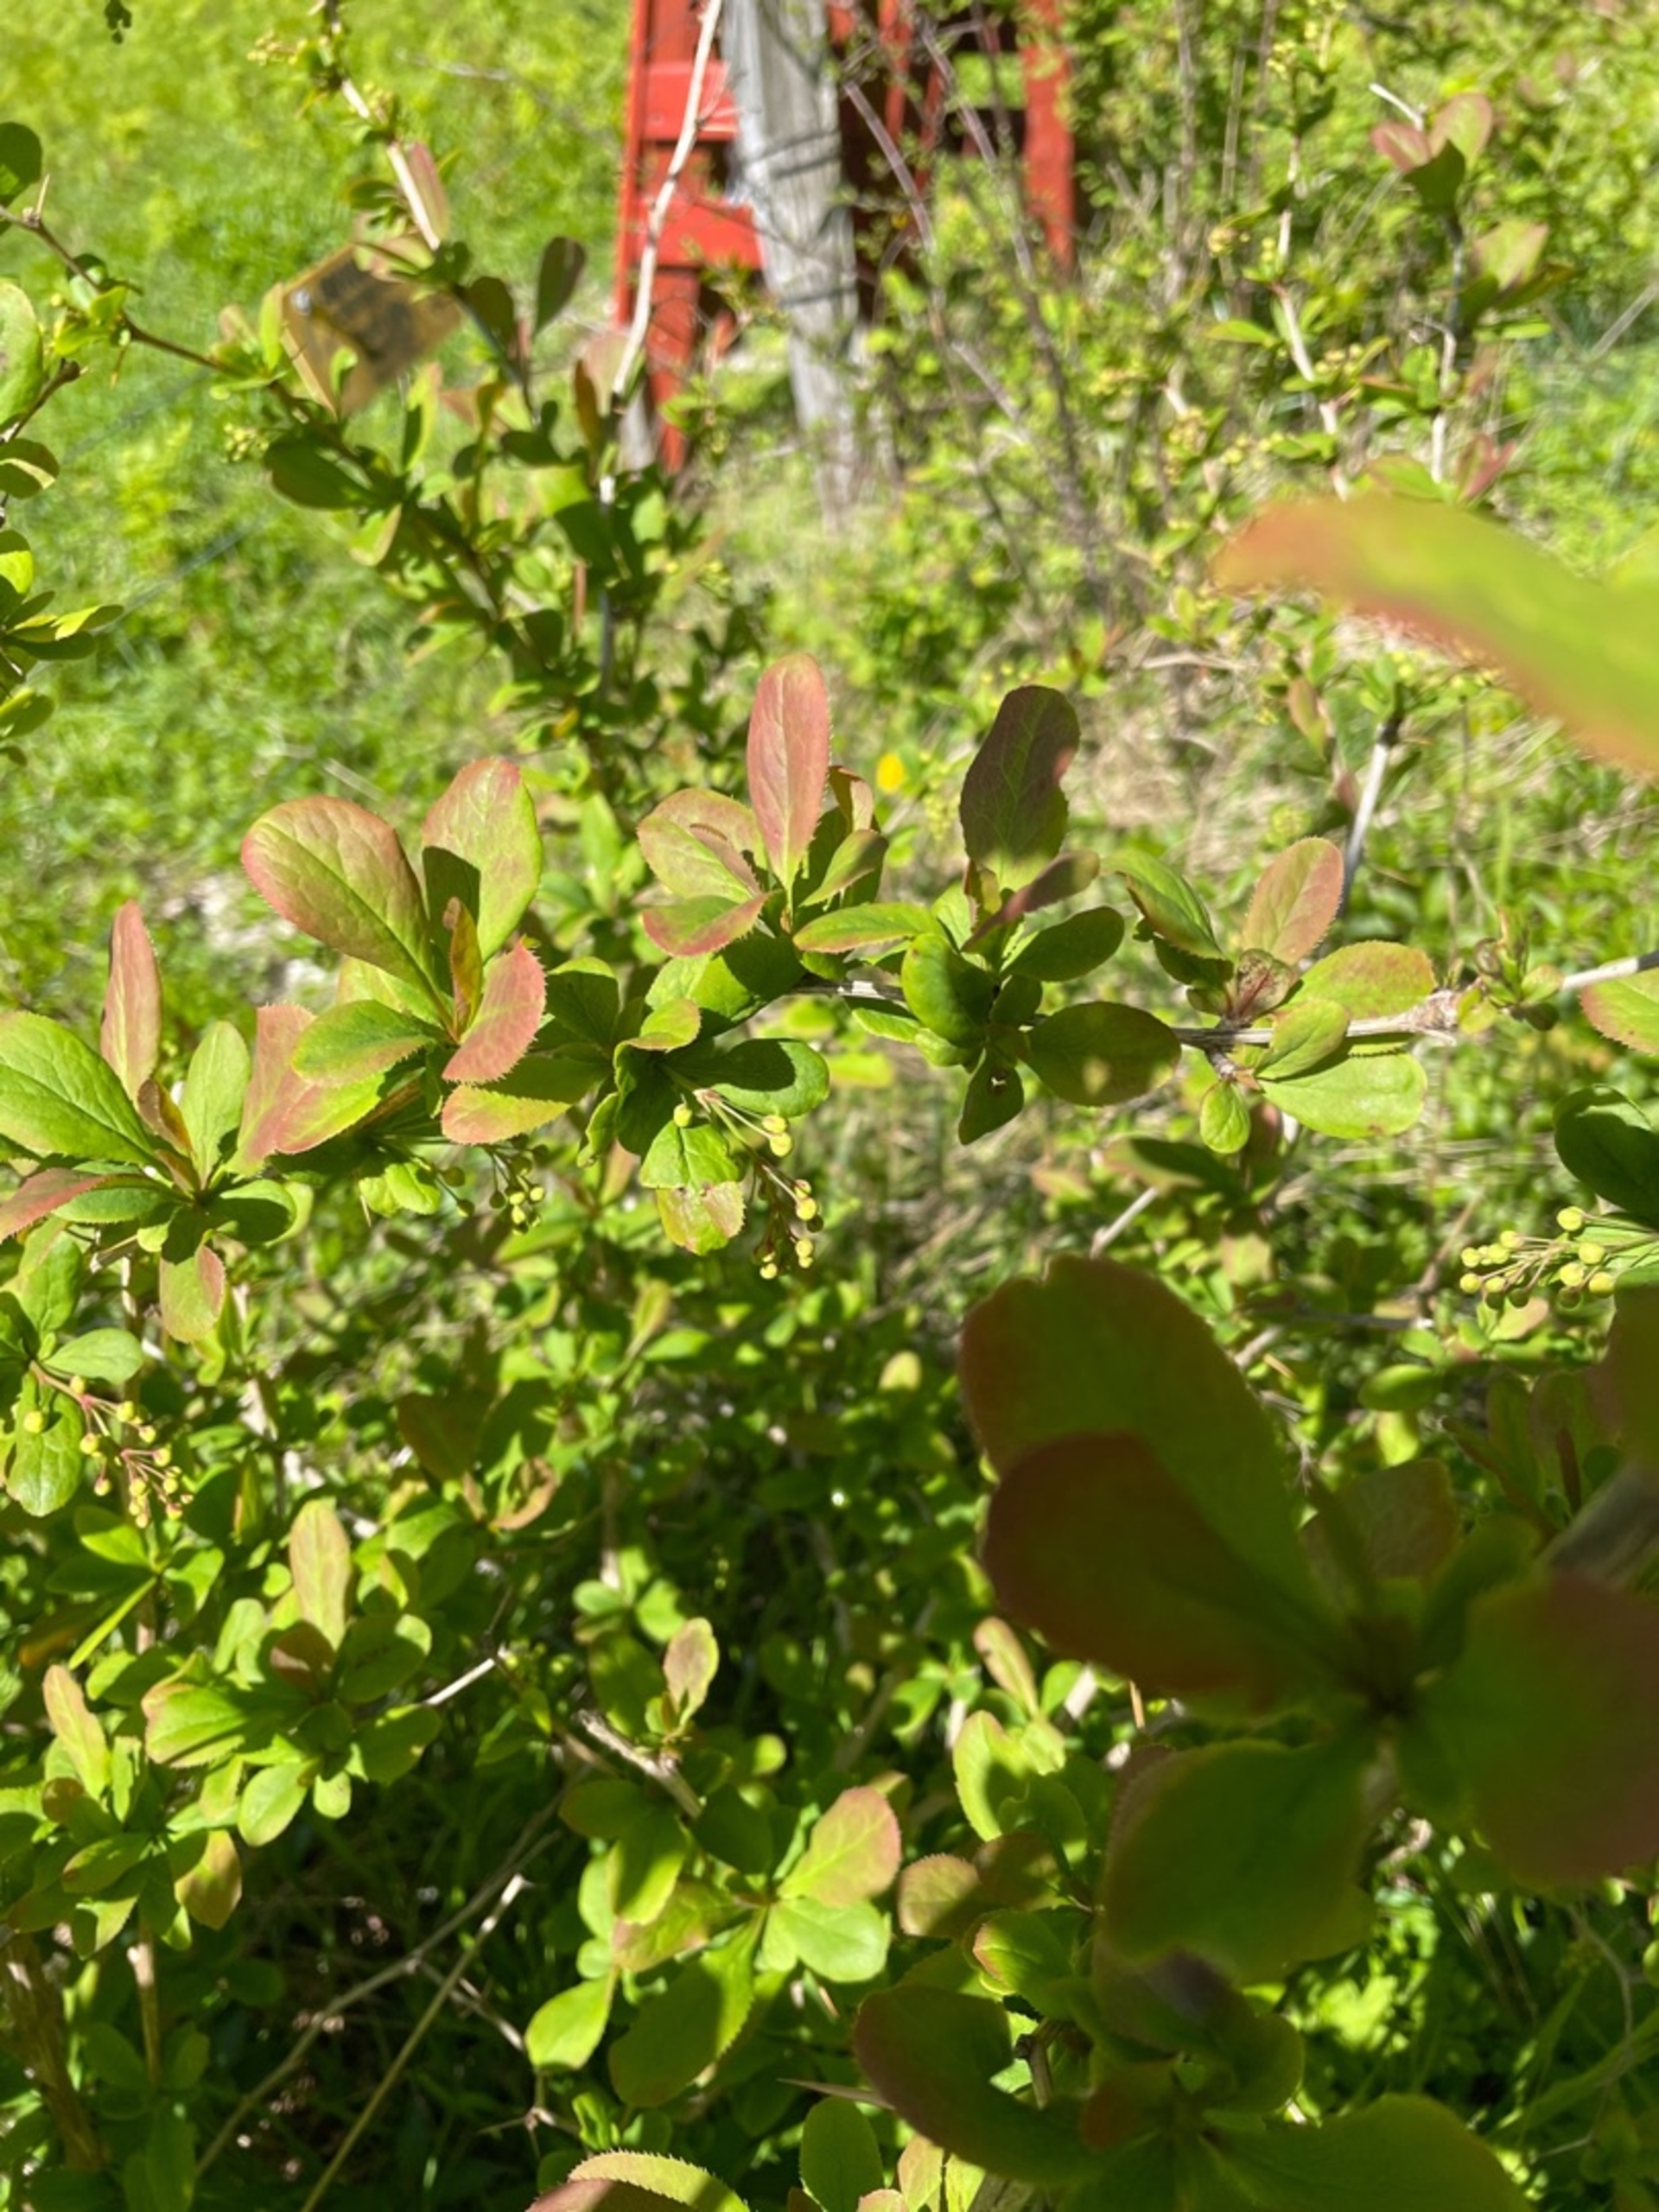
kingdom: Plantae
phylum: Tracheophyta
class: Magnoliopsida
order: Ranunculales
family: Berberidaceae
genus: Berberis
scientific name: Berberis vulgaris
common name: Almindelig berberis
